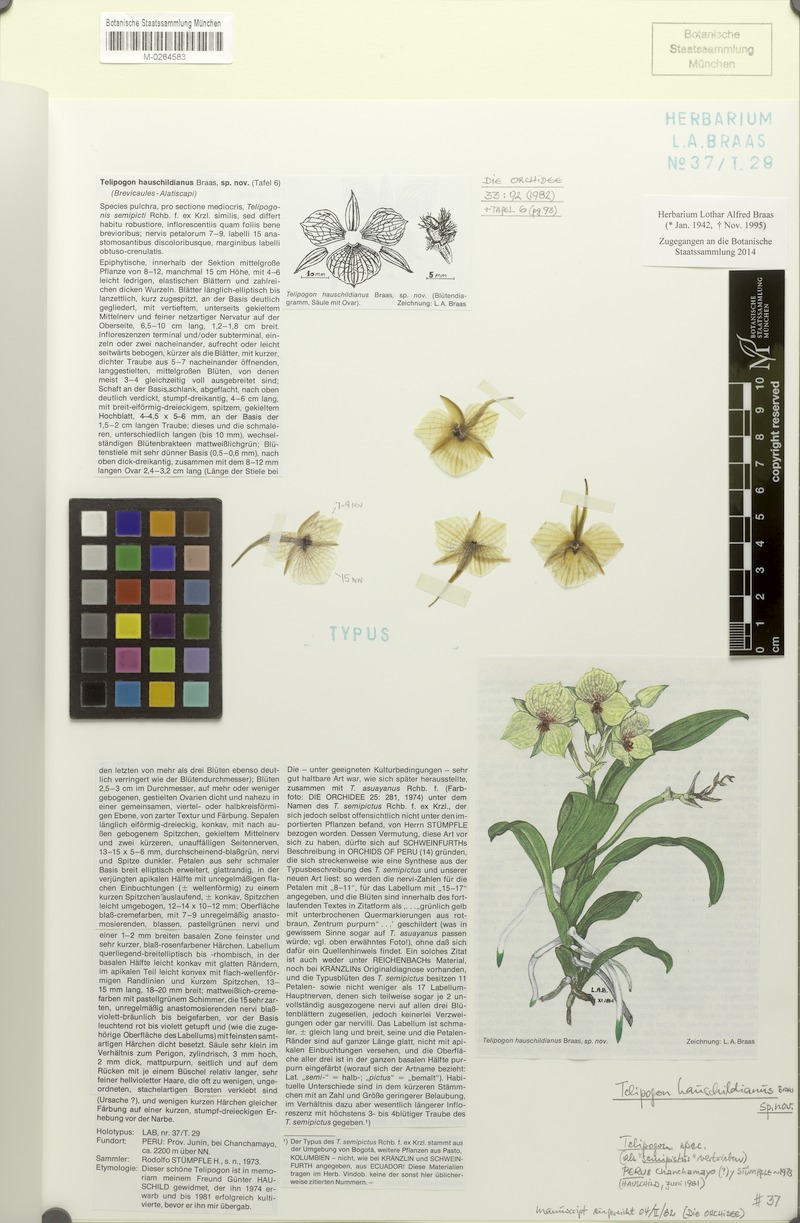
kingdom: Plantae
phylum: Tracheophyta
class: Liliopsida
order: Asparagales
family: Orchidaceae
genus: Telipogon
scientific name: Telipogon hauschildianus
